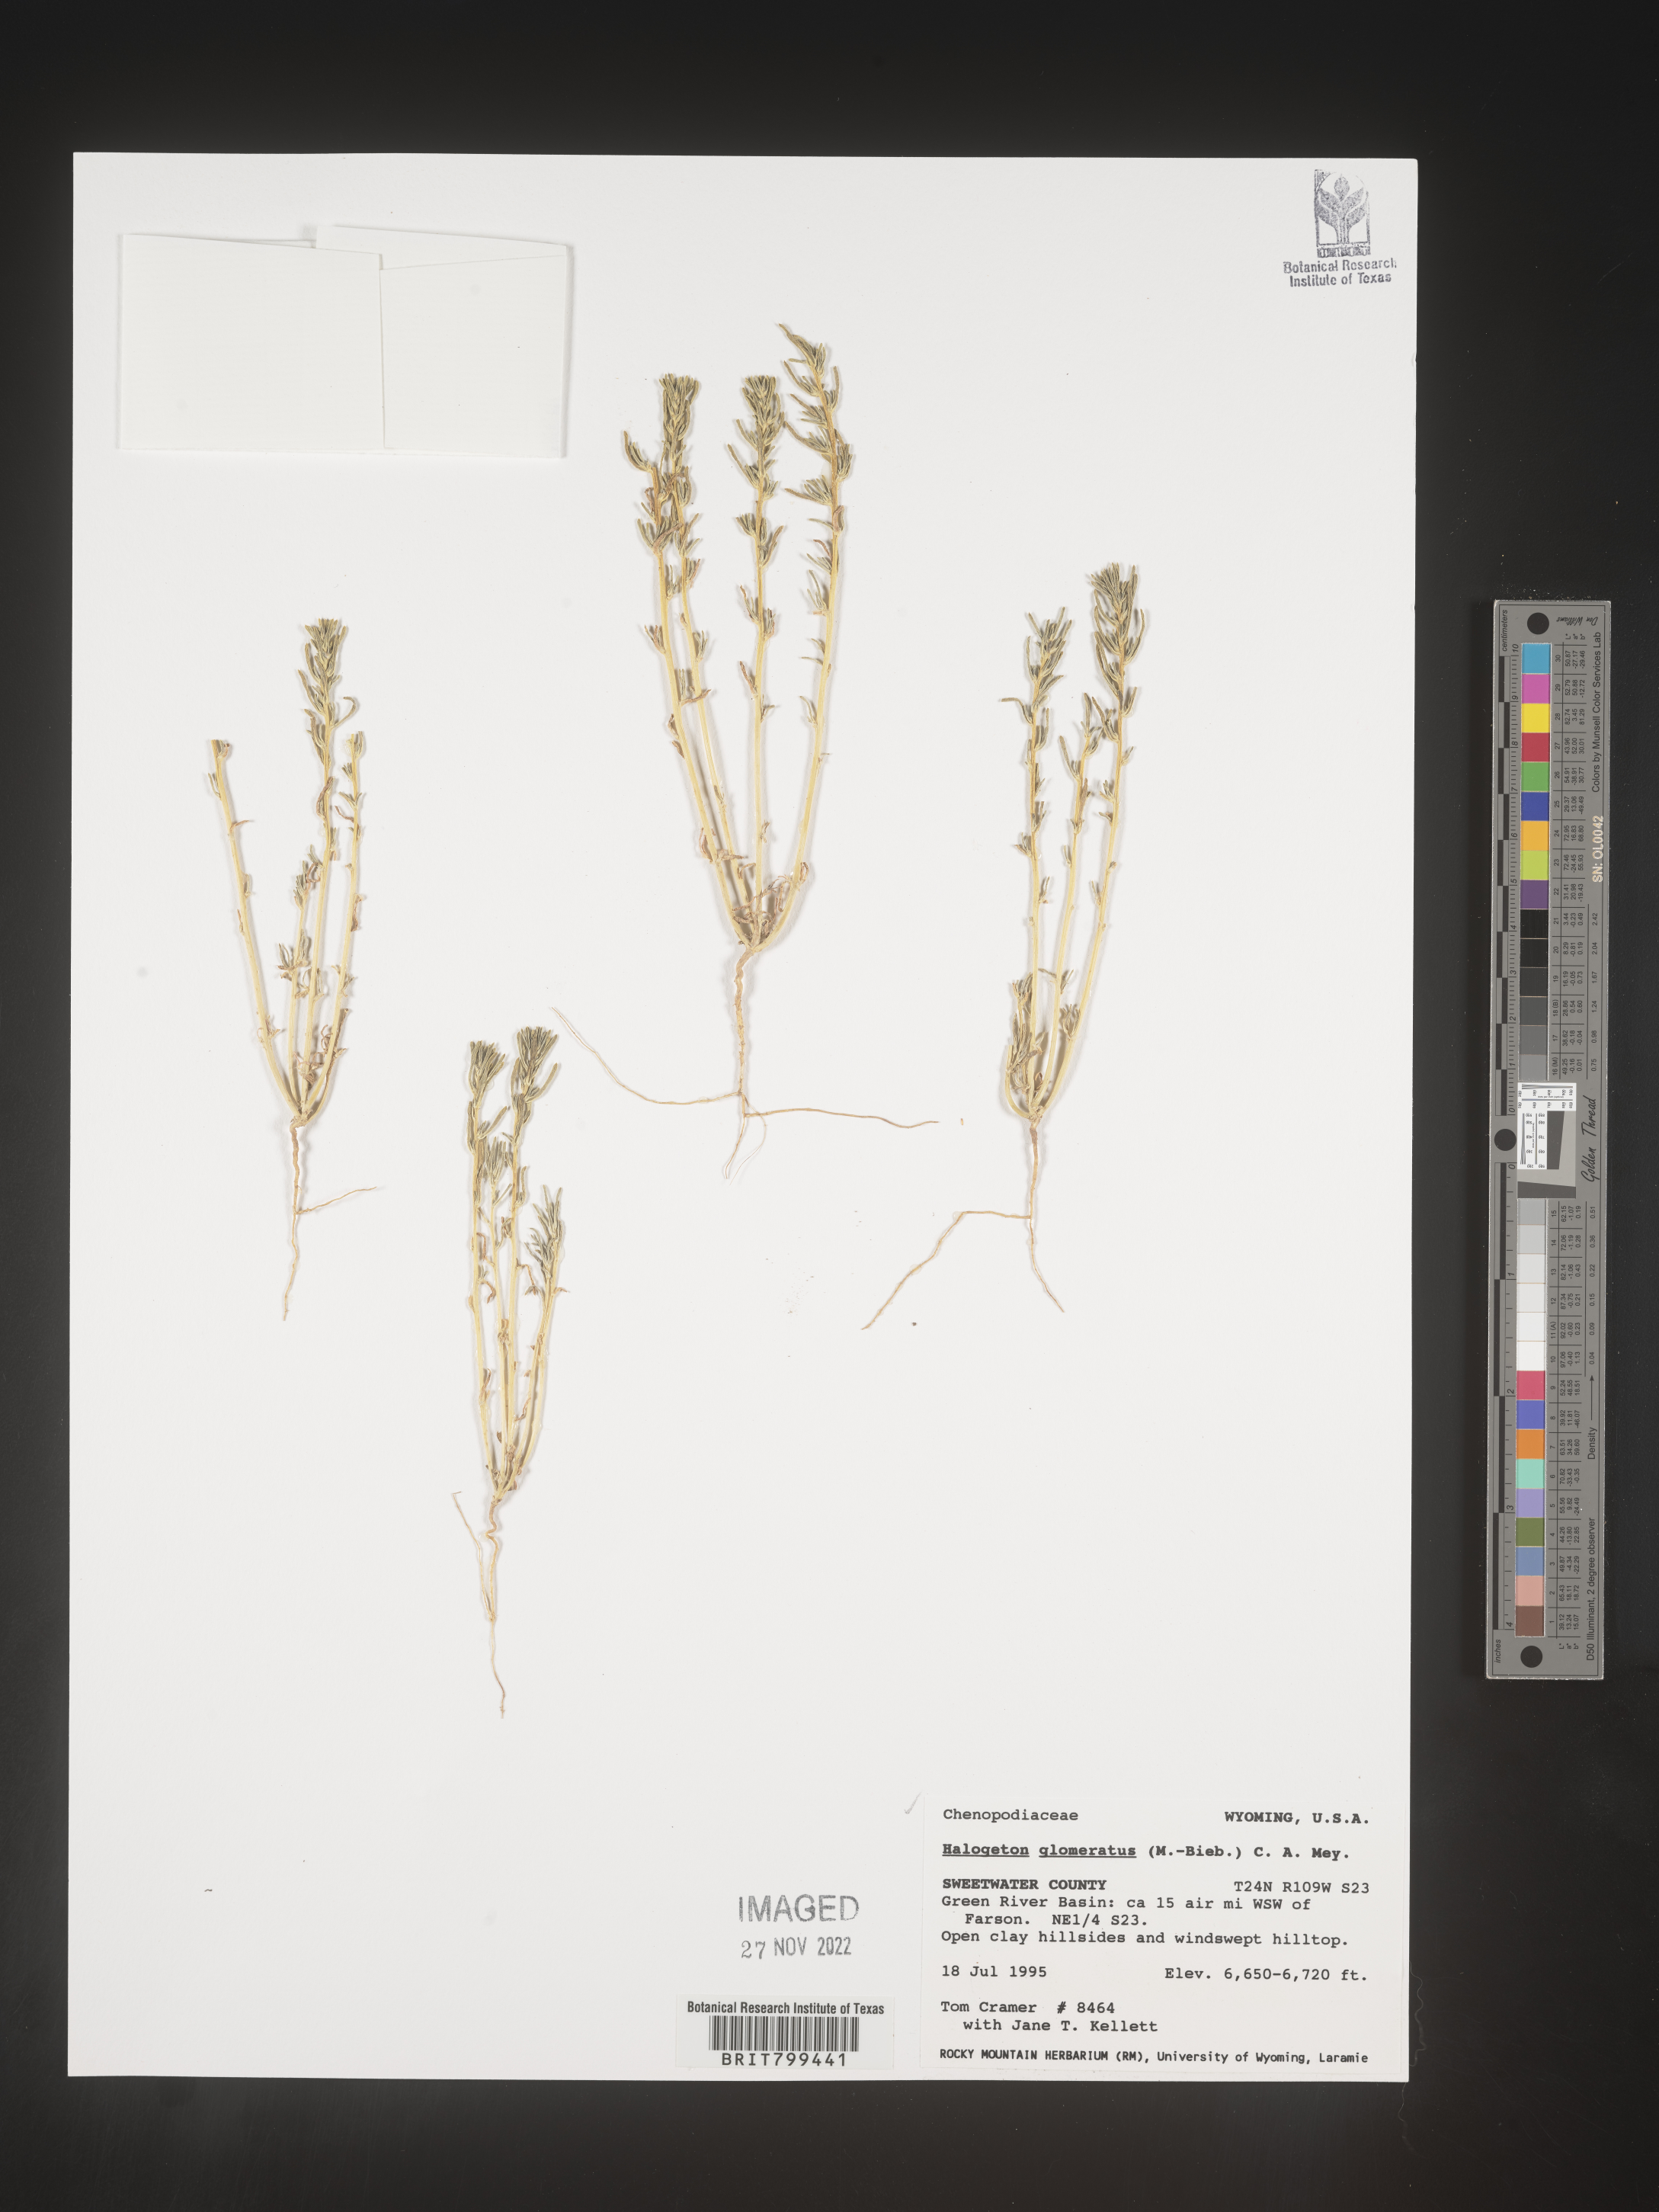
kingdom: Plantae
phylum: Tracheophyta
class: Magnoliopsida
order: Caryophyllales
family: Amaranthaceae
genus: Halogeton
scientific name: Halogeton glomeratus
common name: Saltlover
